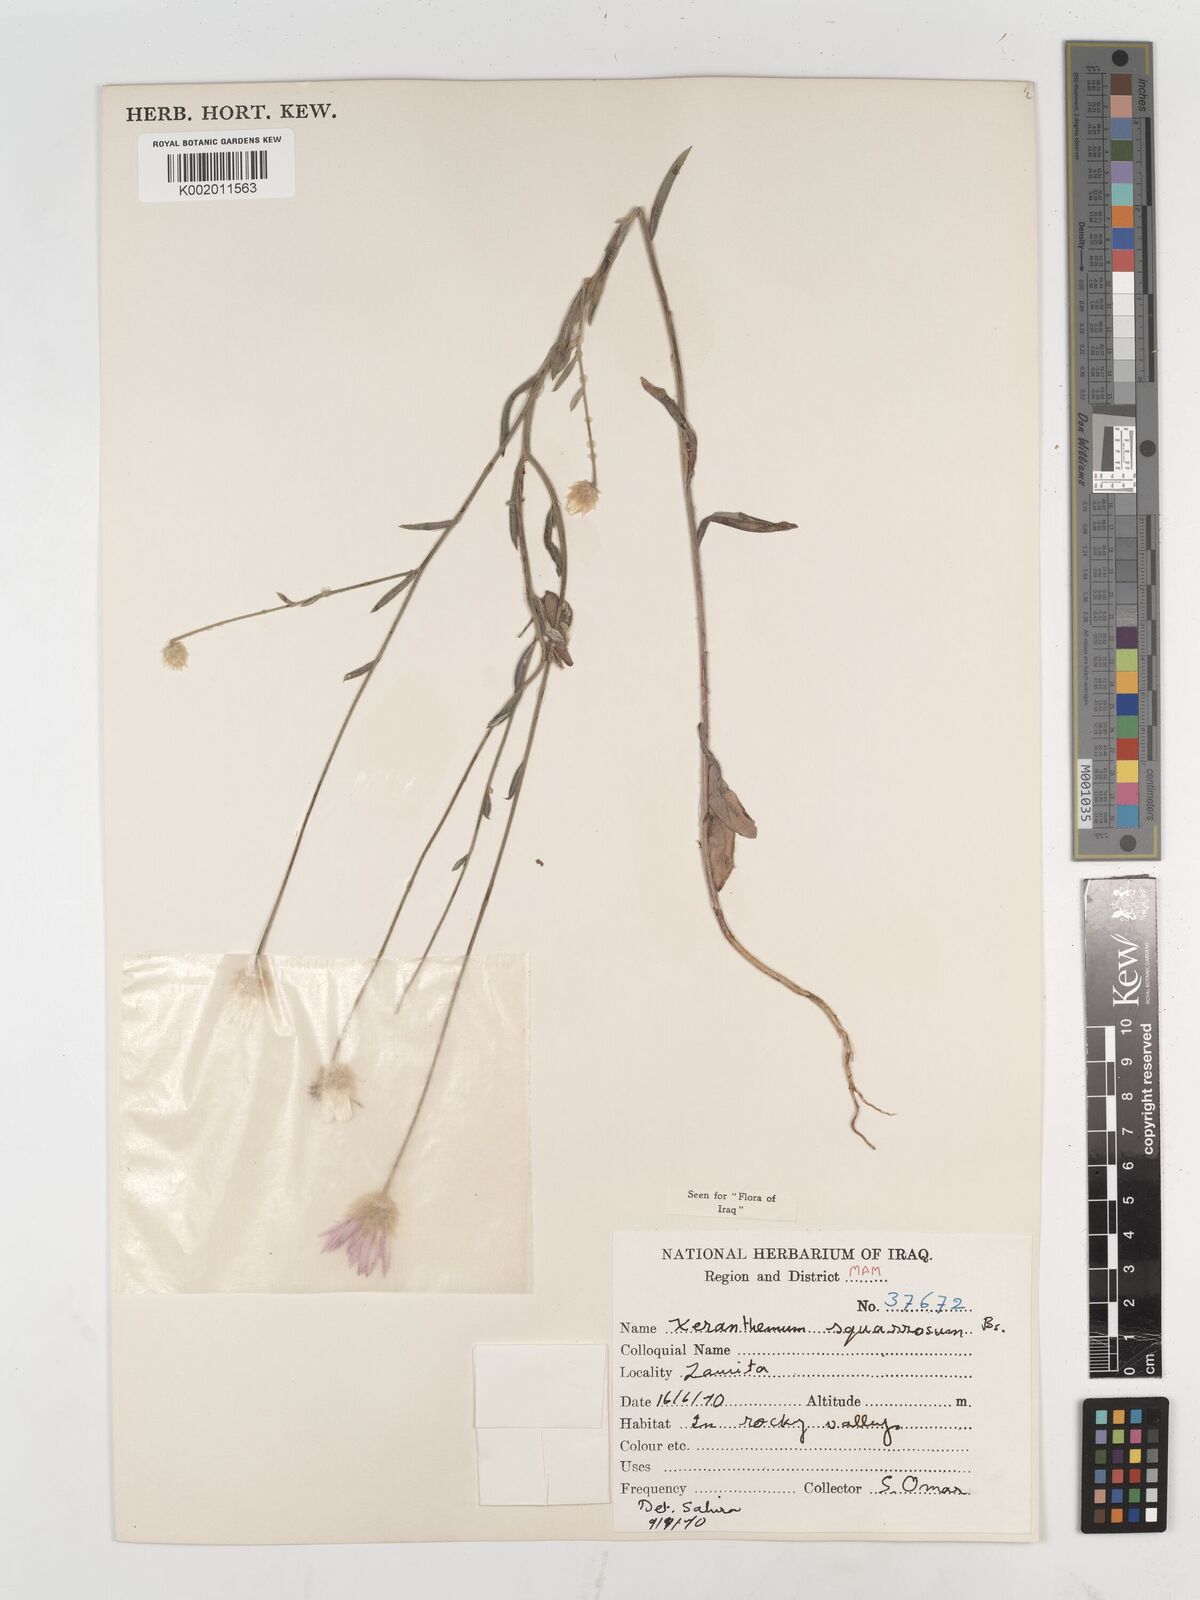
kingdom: Plantae
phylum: Tracheophyta
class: Magnoliopsida
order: Asterales
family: Asteraceae
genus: Xeranthemum
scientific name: Xeranthemum annuum
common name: Immortelle
